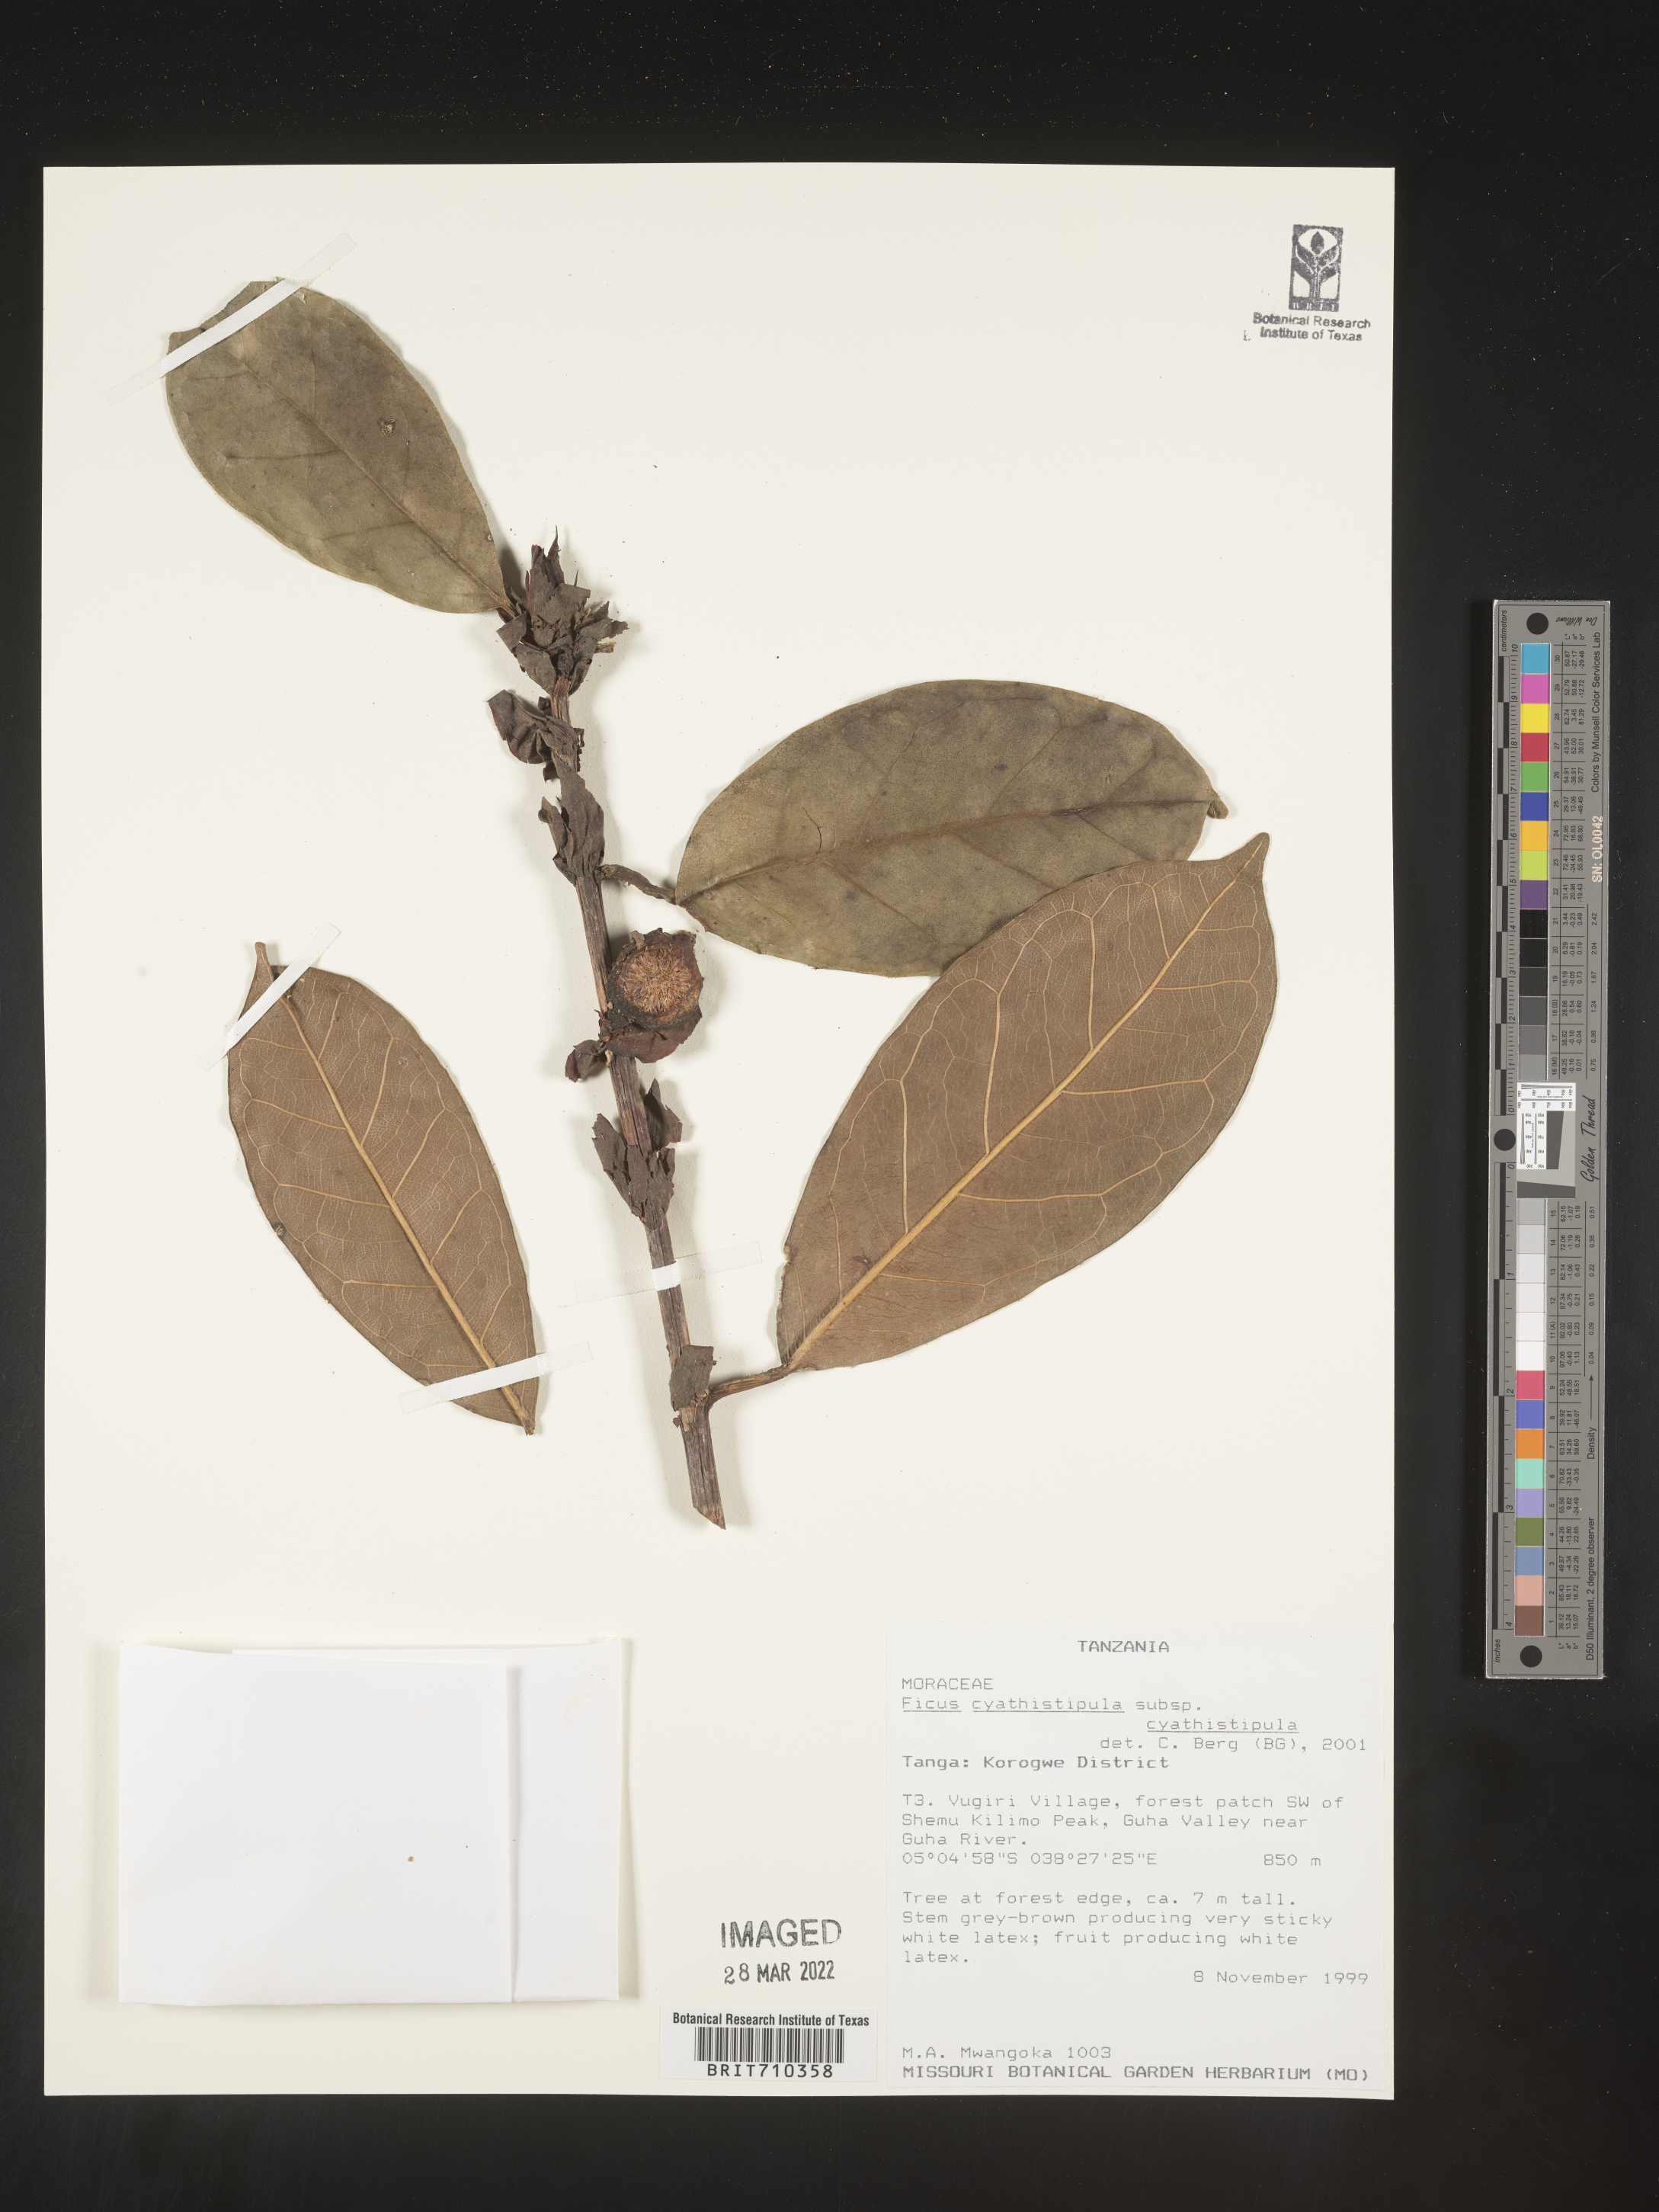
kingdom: Plantae
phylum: Tracheophyta
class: Magnoliopsida
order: Rosales
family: Moraceae
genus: Ficus
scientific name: Ficus
